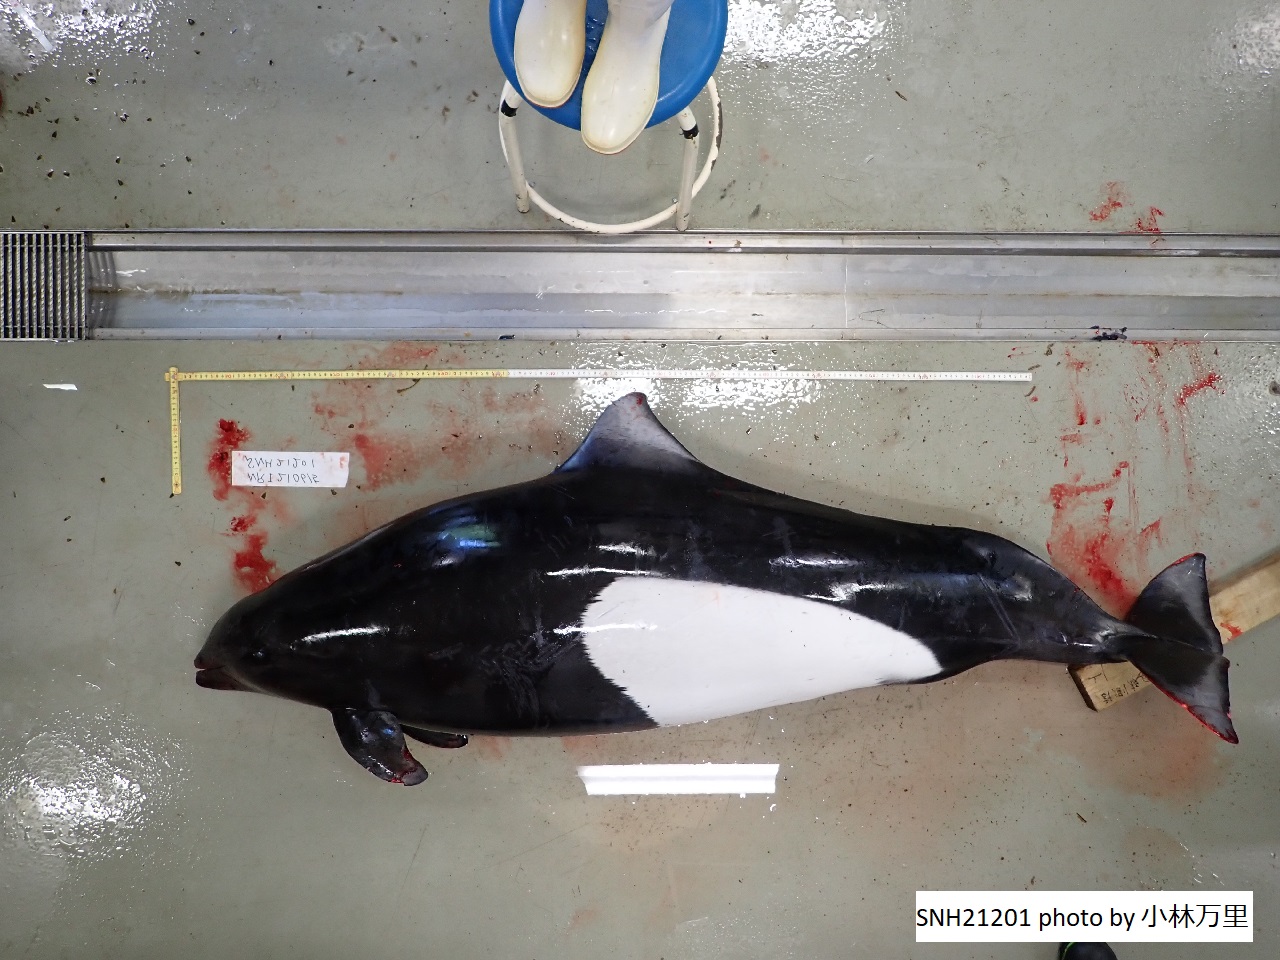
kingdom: Animalia
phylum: Chordata
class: Mammalia
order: Cetacea
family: Phocoenidae
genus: Phocoenoides
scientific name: Phocoenoides dalli
